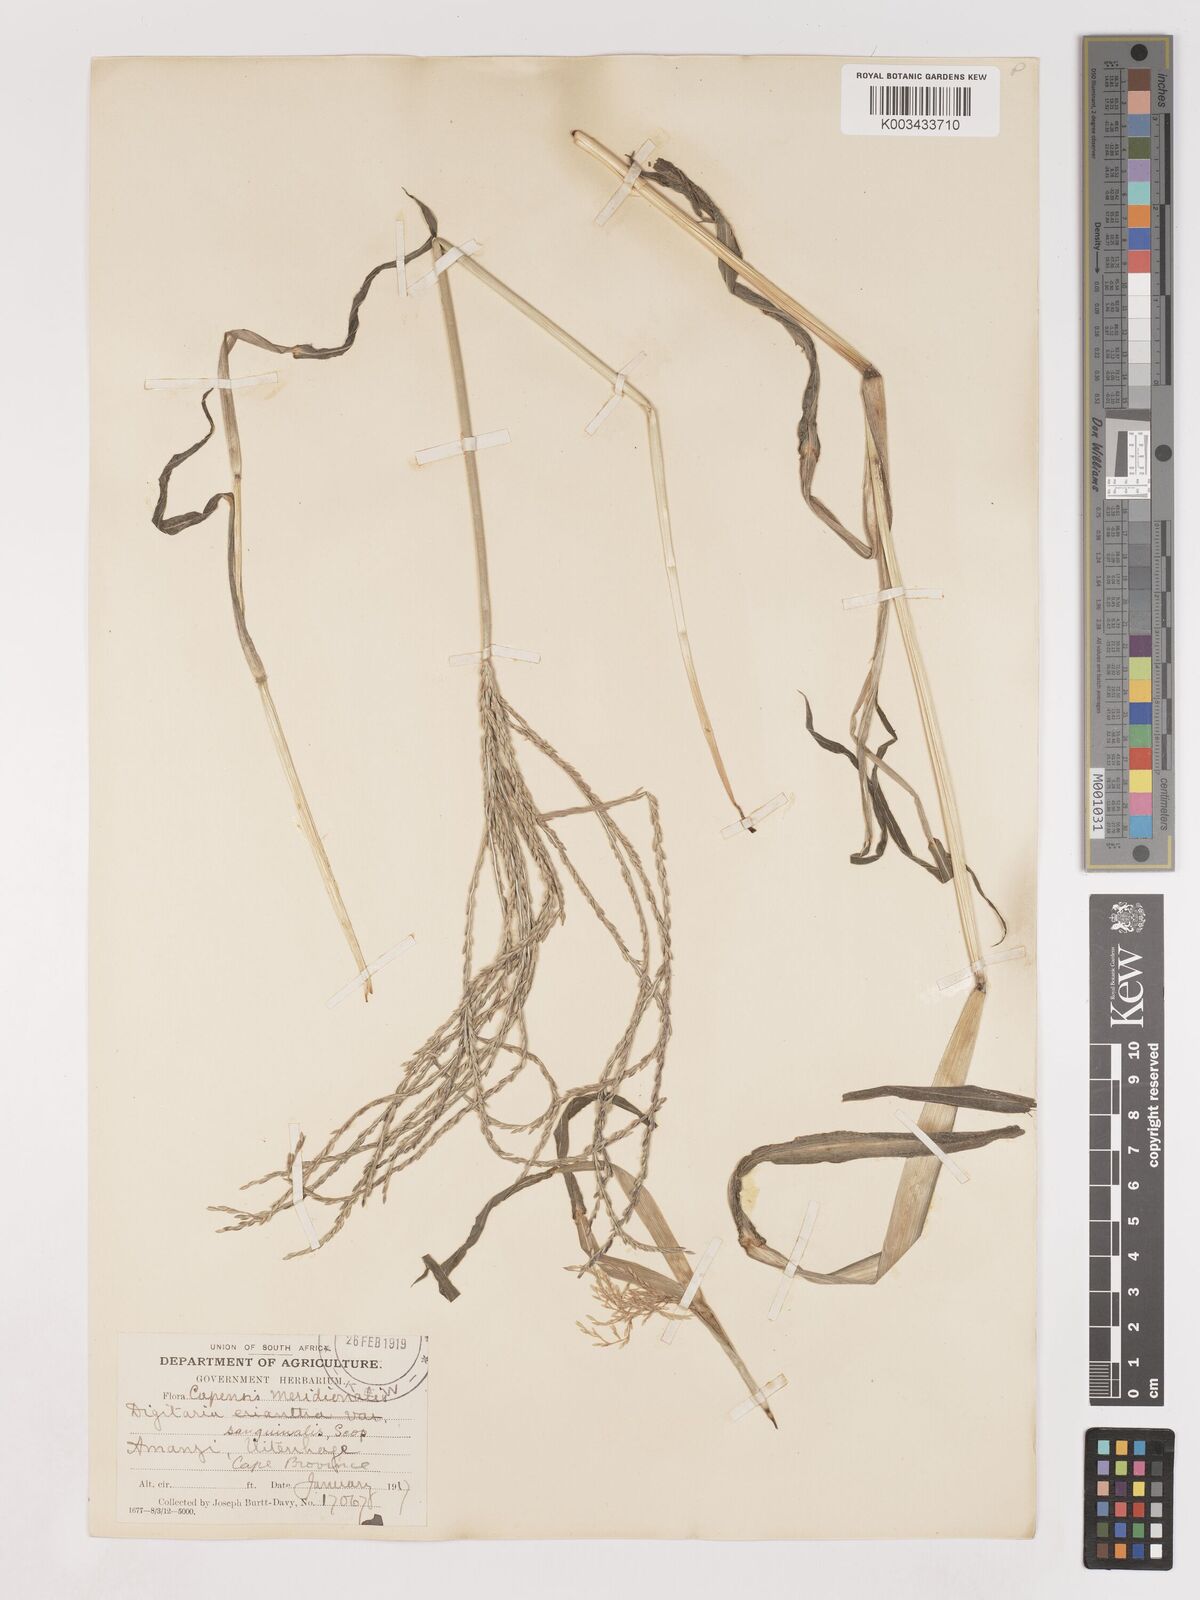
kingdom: Plantae
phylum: Tracheophyta
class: Liliopsida
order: Poales
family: Poaceae
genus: Digitaria
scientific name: Digitaria sanguinalis
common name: Hairy crabgrass
